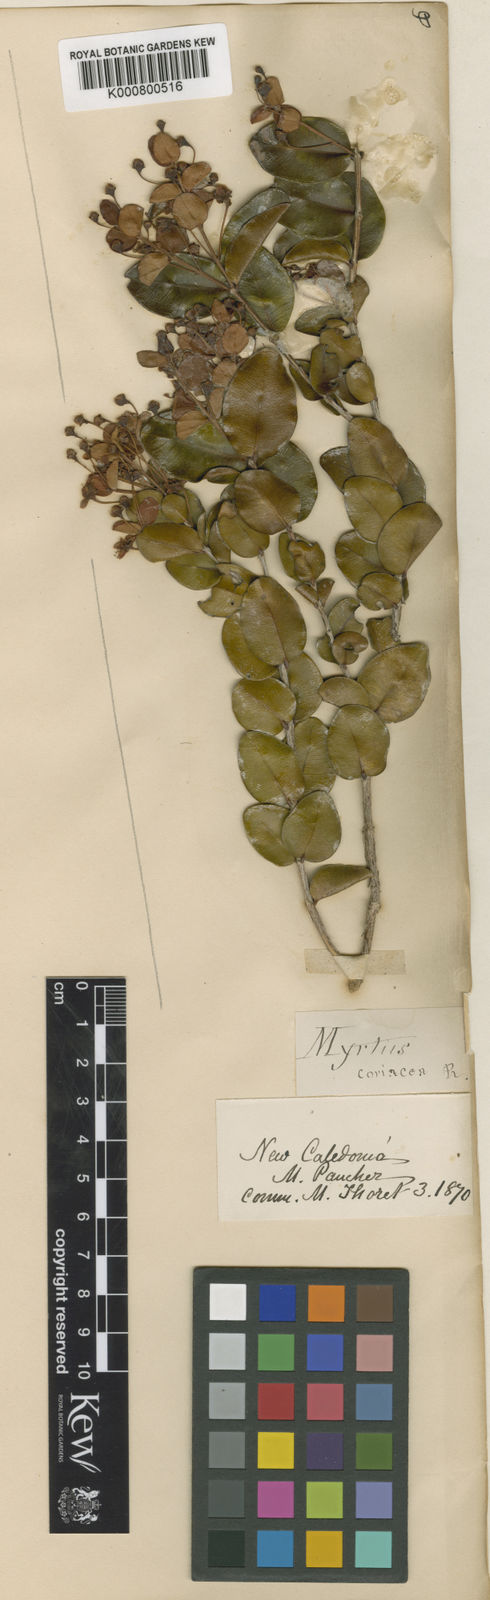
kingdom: Plantae
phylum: Tracheophyta
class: Magnoliopsida
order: Myrtales
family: Myrtaceae
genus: Gossia
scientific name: Gossia diversifolia
